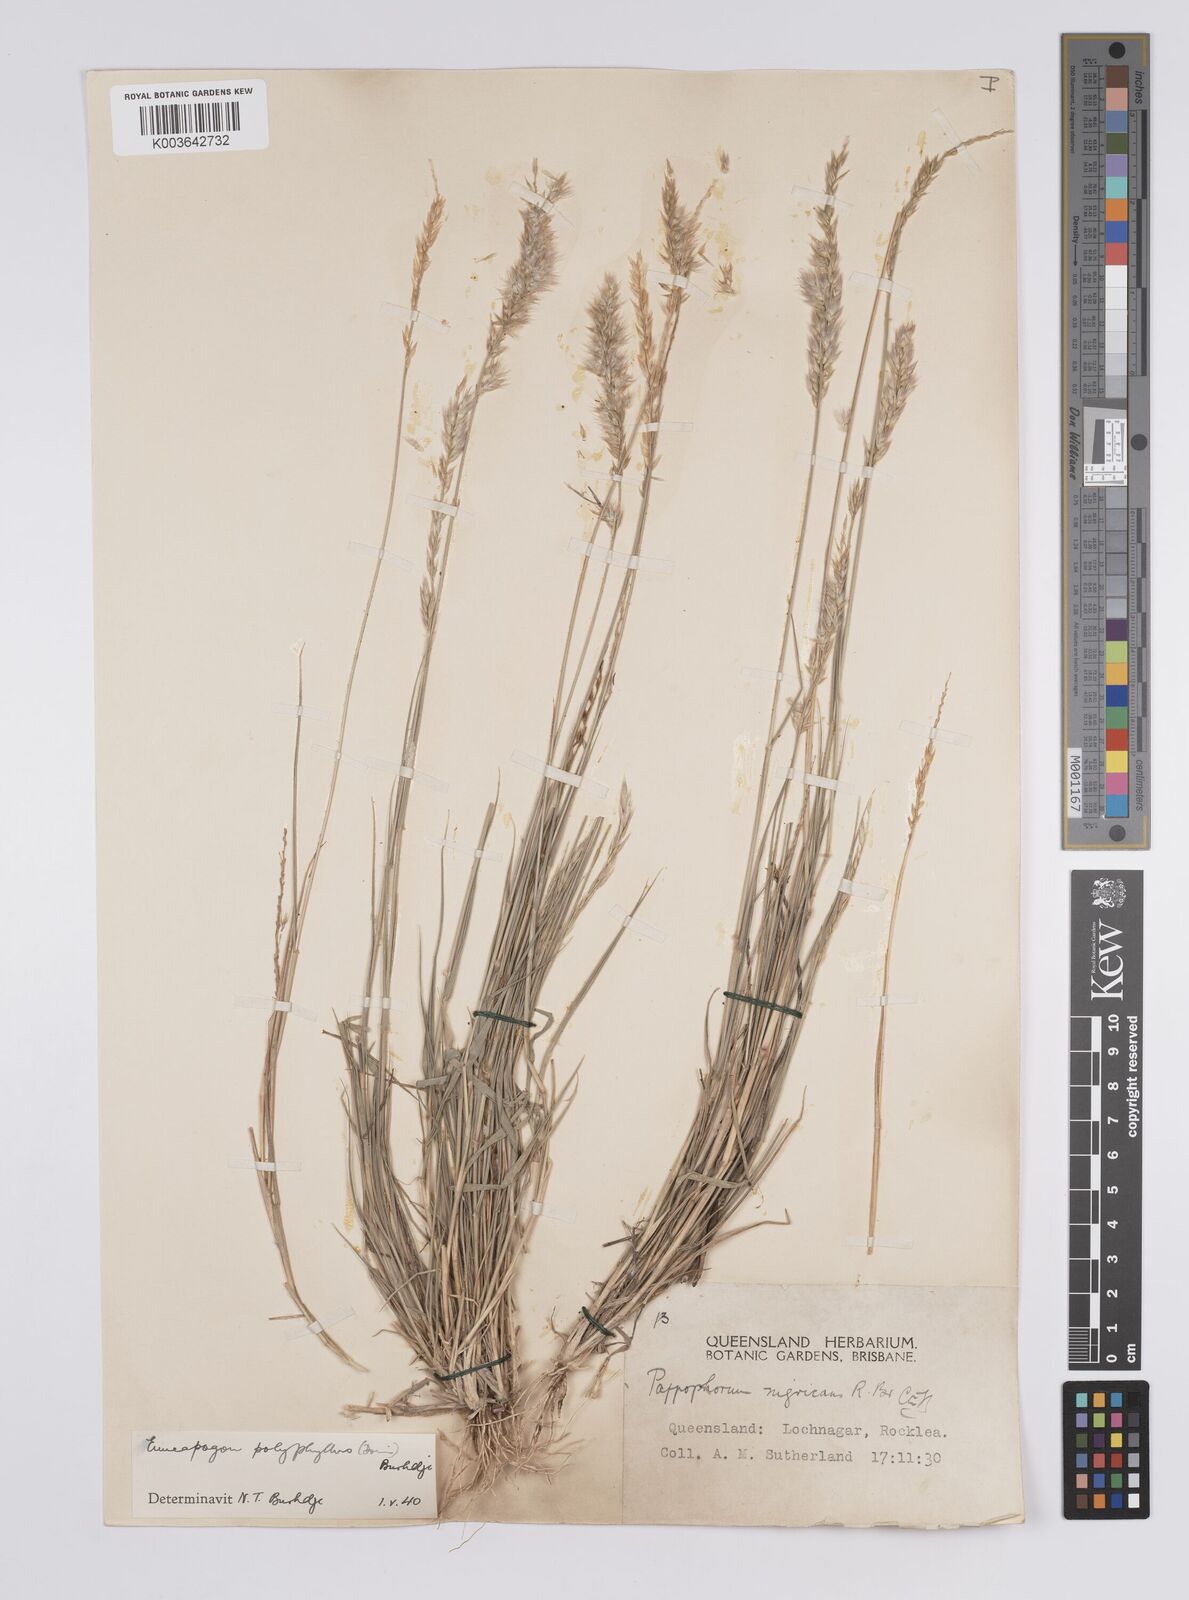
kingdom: Plantae
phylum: Tracheophyta
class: Liliopsida
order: Poales
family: Poaceae
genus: Enneapogon
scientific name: Enneapogon polyphyllus
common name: Leafy nineawn
